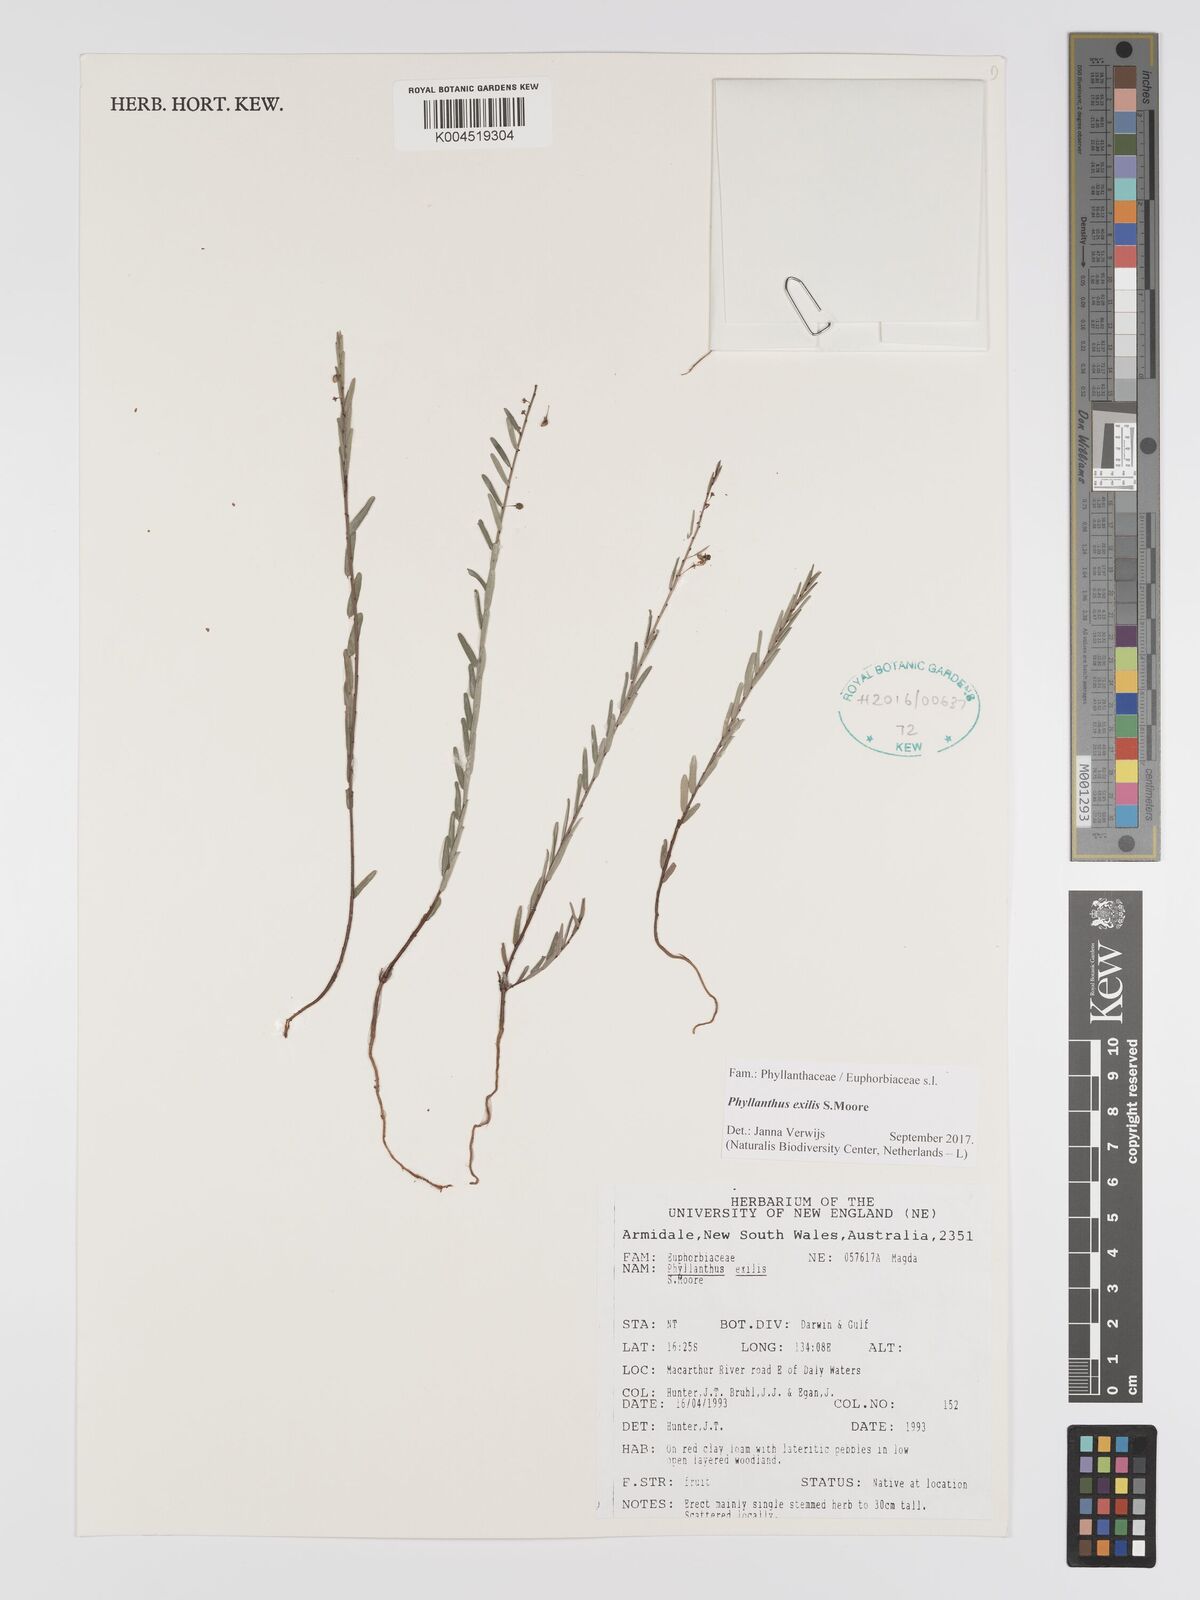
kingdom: Plantae
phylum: Tracheophyta
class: Magnoliopsida
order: Malpighiales
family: Phyllanthaceae
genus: Phyllanthus
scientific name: Phyllanthus exilis
